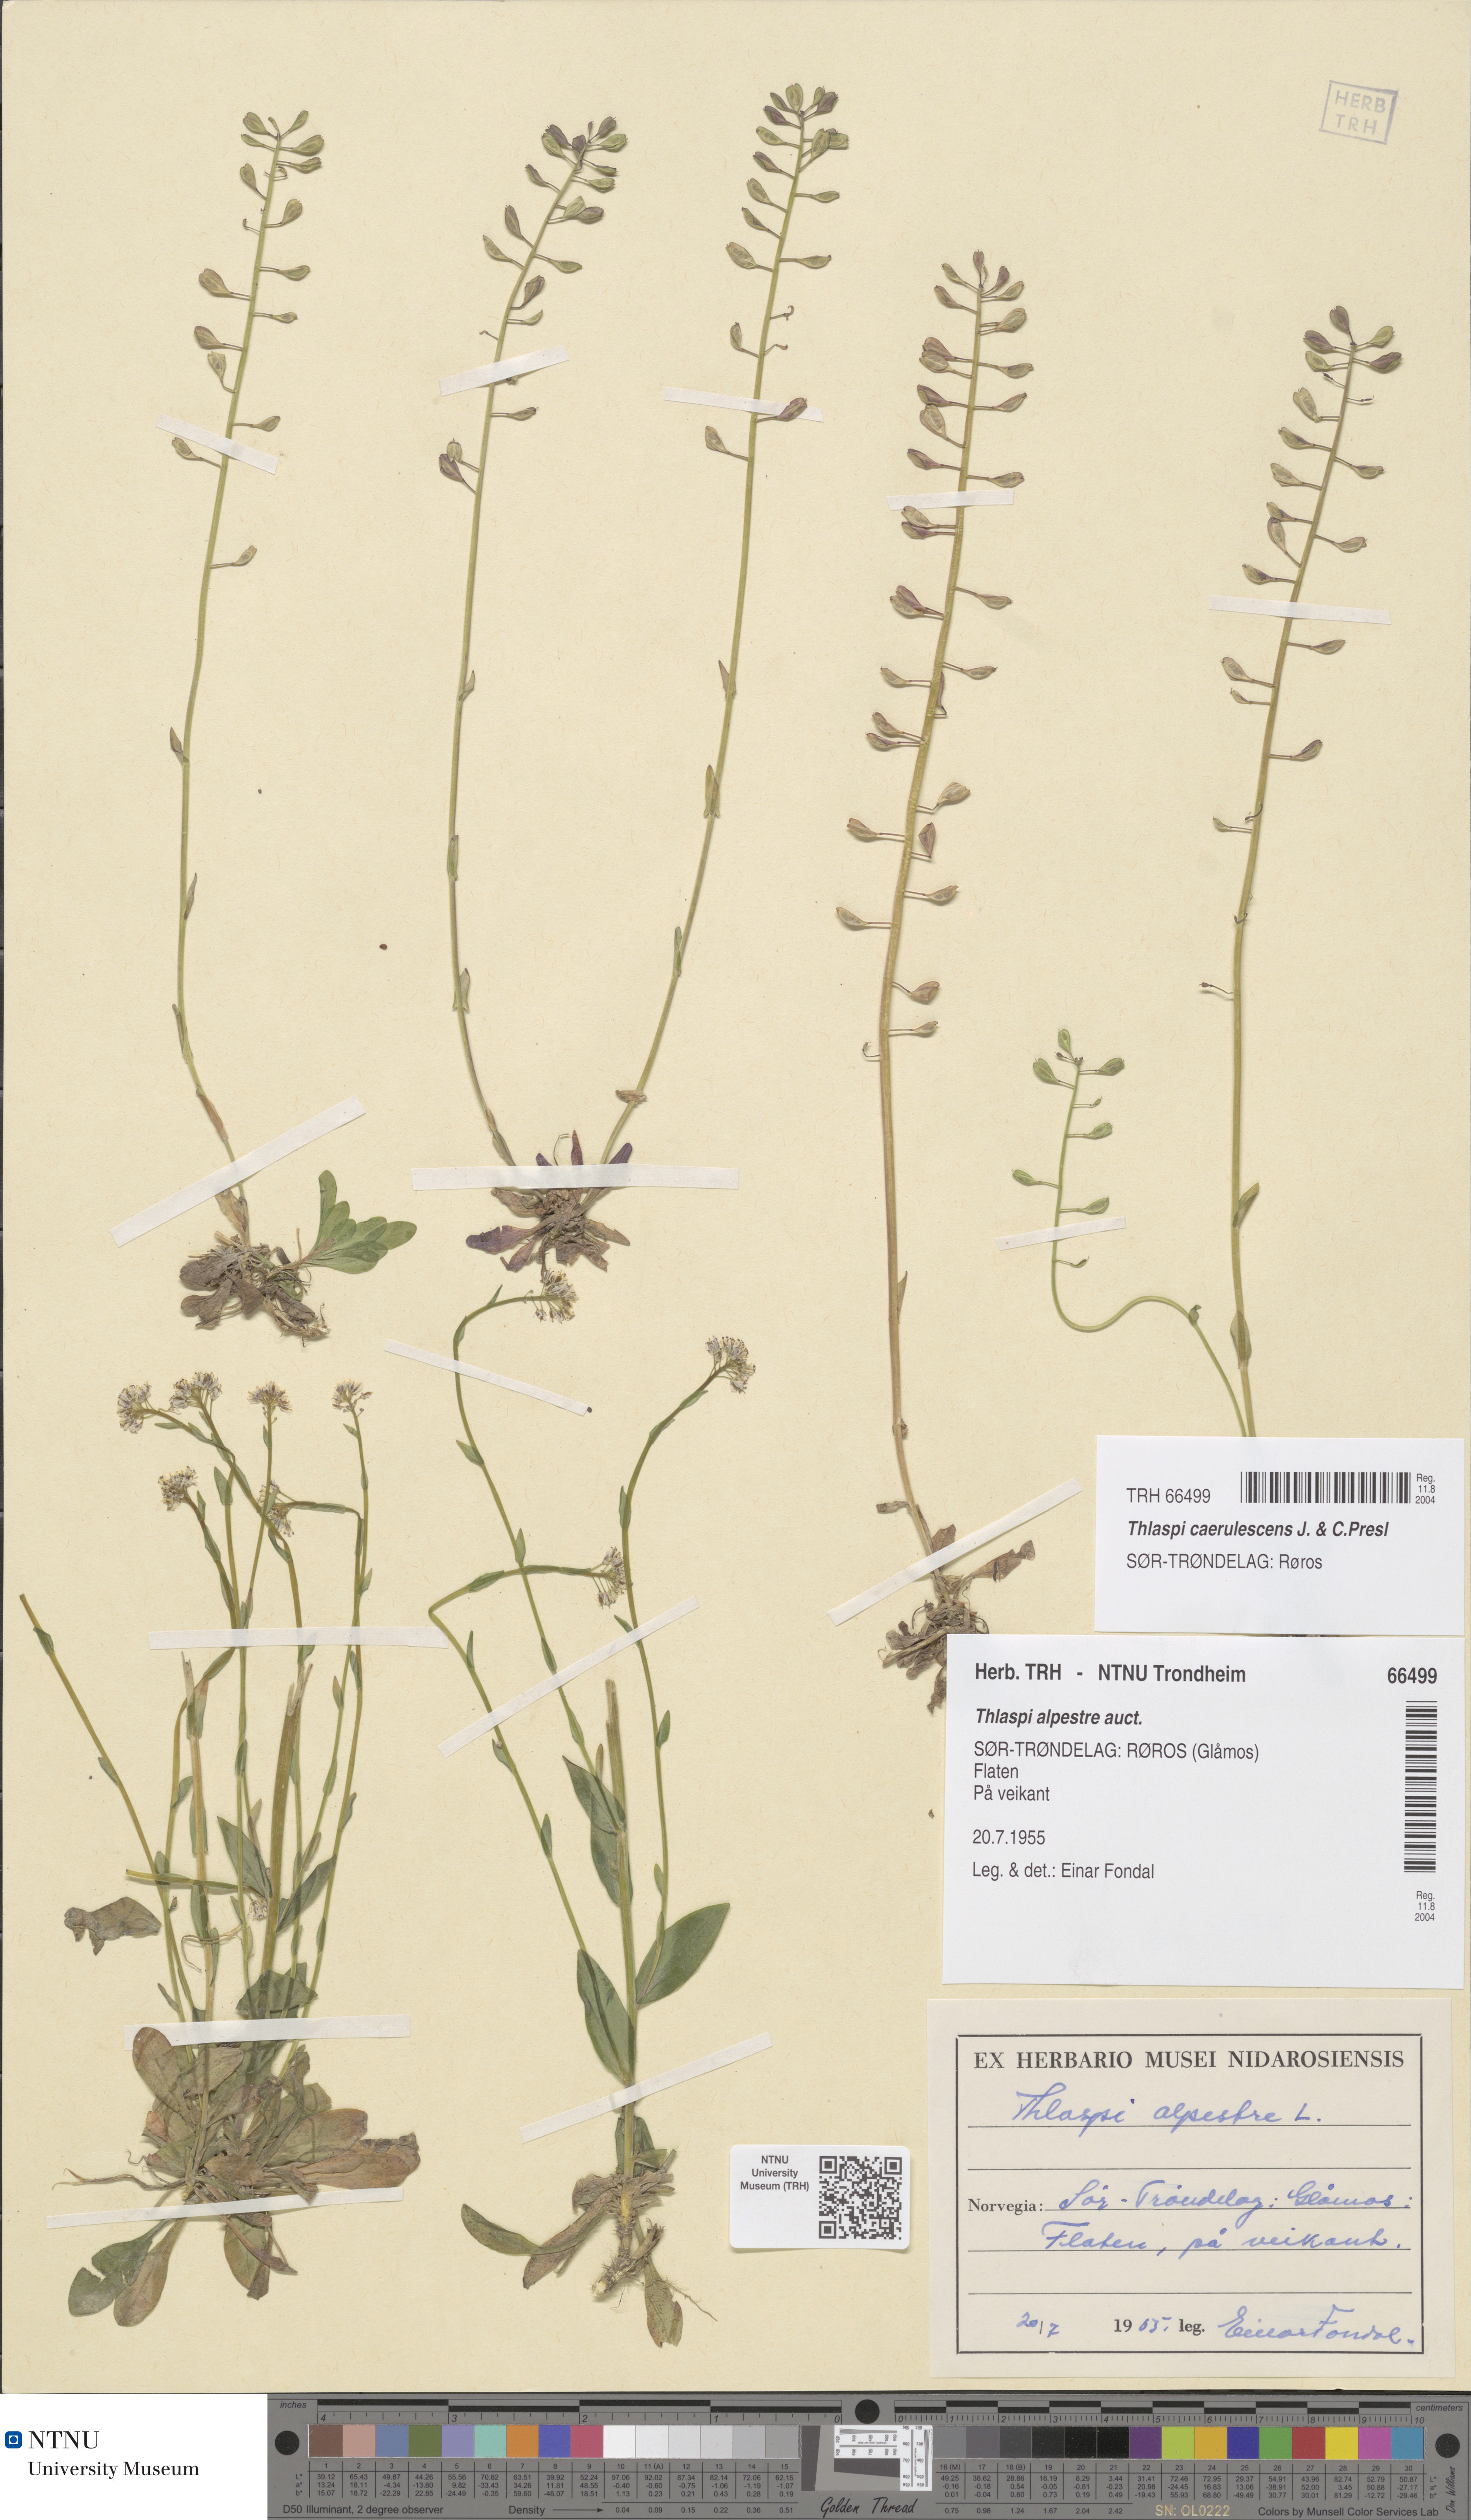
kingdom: Plantae
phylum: Tracheophyta
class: Magnoliopsida
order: Brassicales
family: Brassicaceae
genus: Noccaea
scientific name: Noccaea caerulescens
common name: Alpine pennycress
